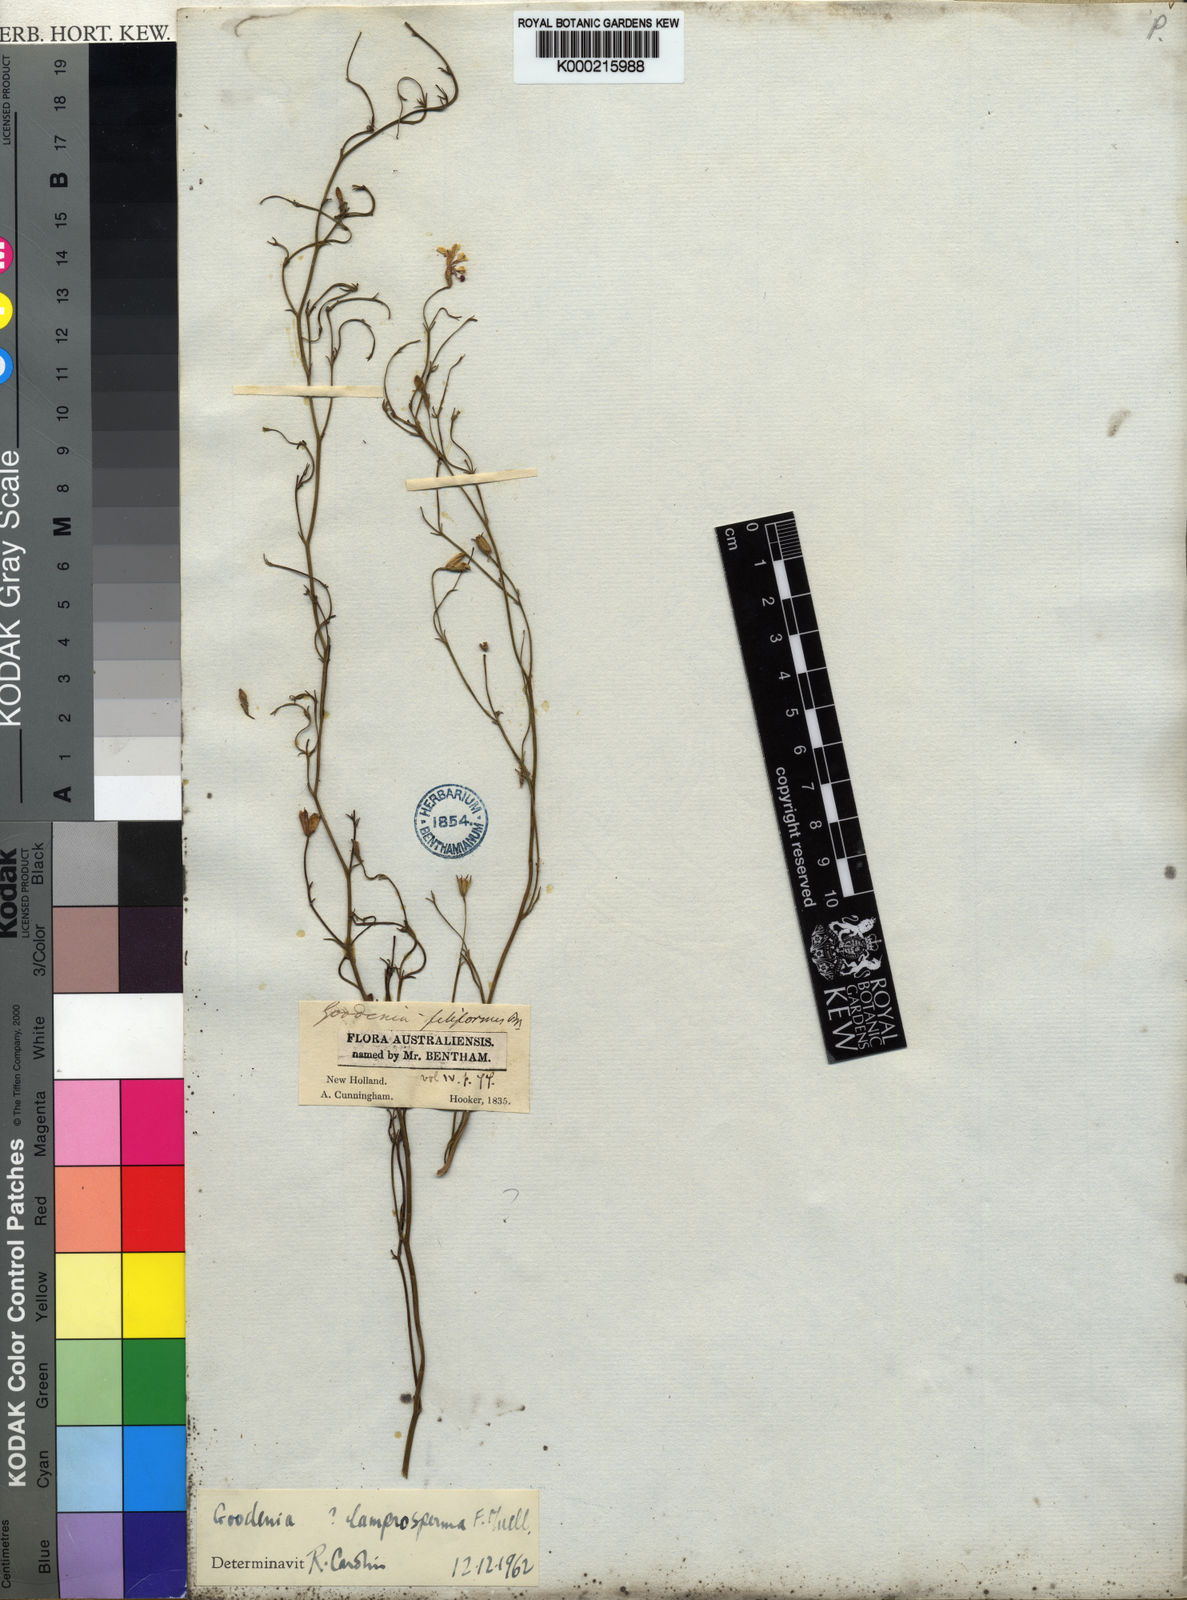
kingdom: Plantae
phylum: Tracheophyta
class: Magnoliopsida
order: Asterales
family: Goodeniaceae
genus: Goodenia
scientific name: Goodenia lamprosperma
